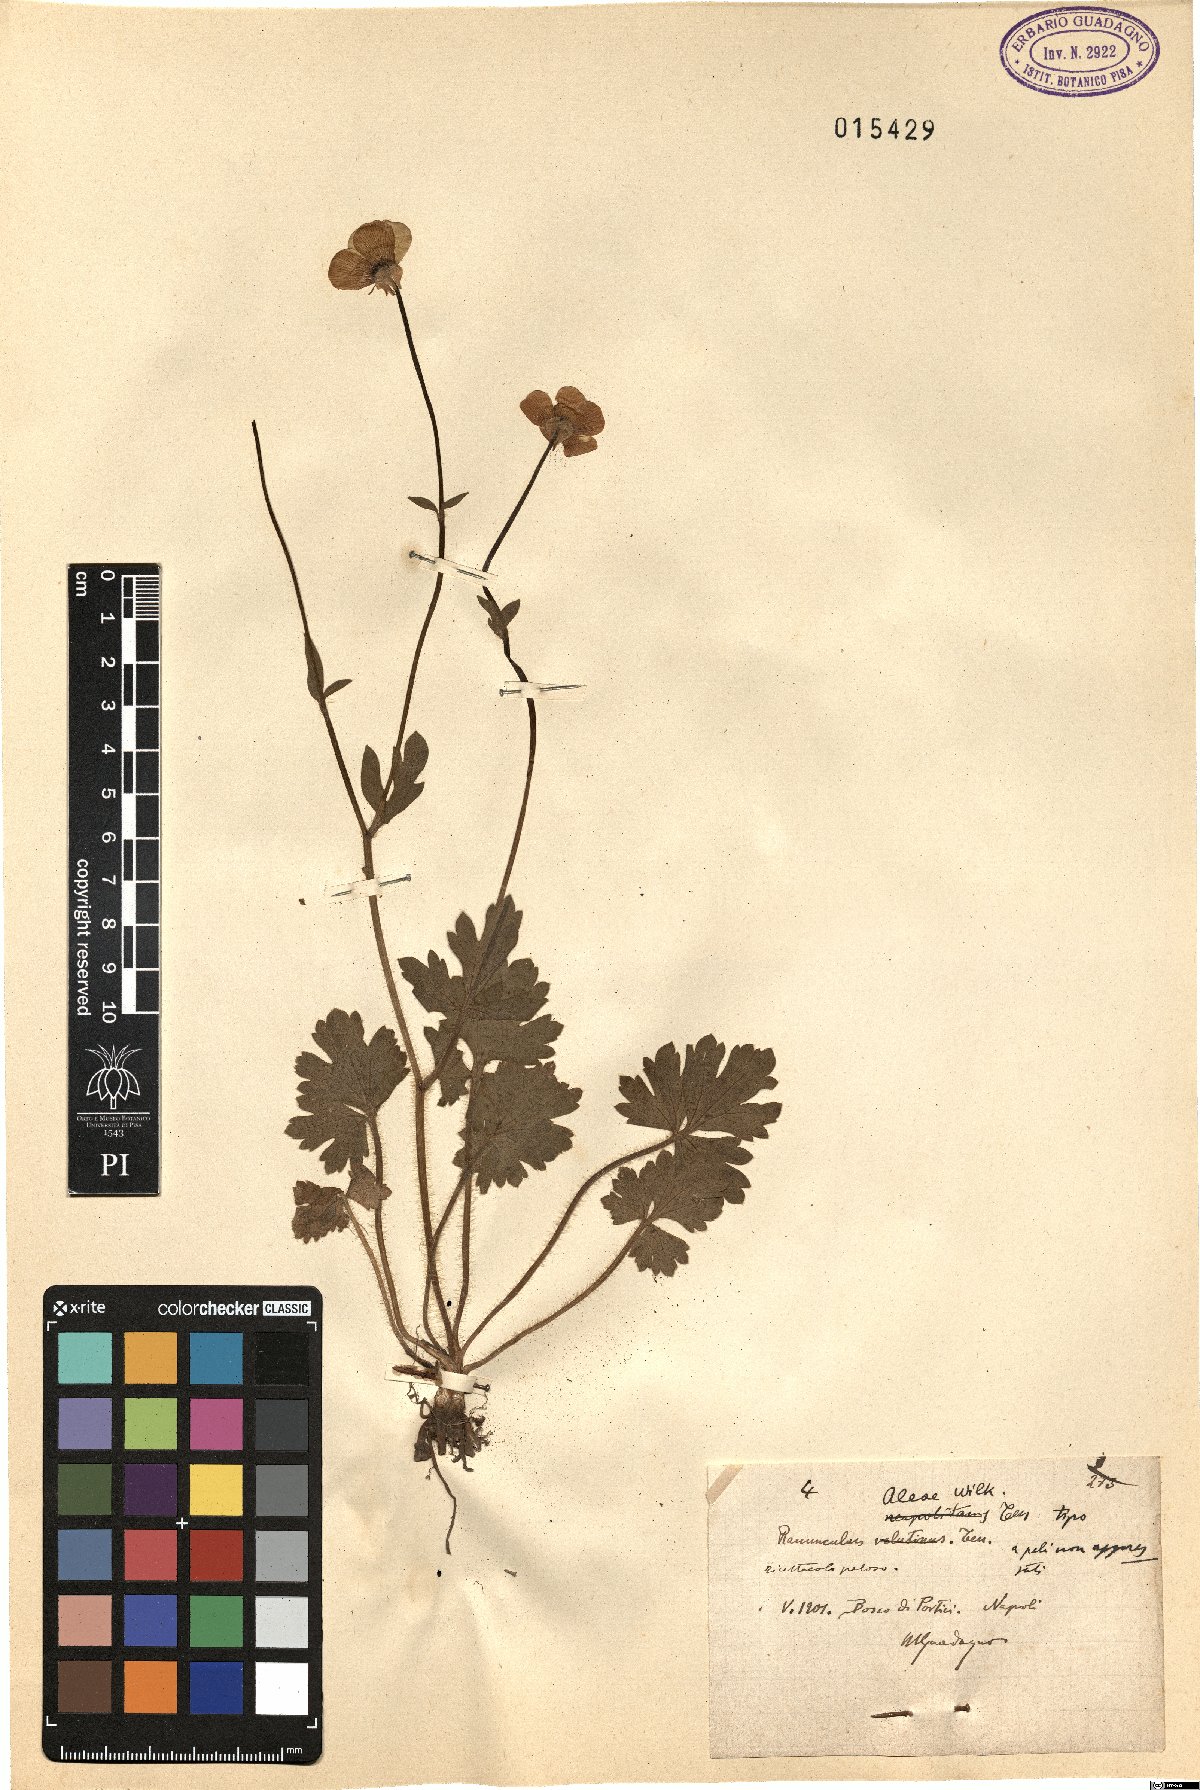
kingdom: Plantae
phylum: Tracheophyta
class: Magnoliopsida
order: Ranunculales
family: Ranunculaceae
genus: Ranunculus
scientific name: Ranunculus neapolitanus
